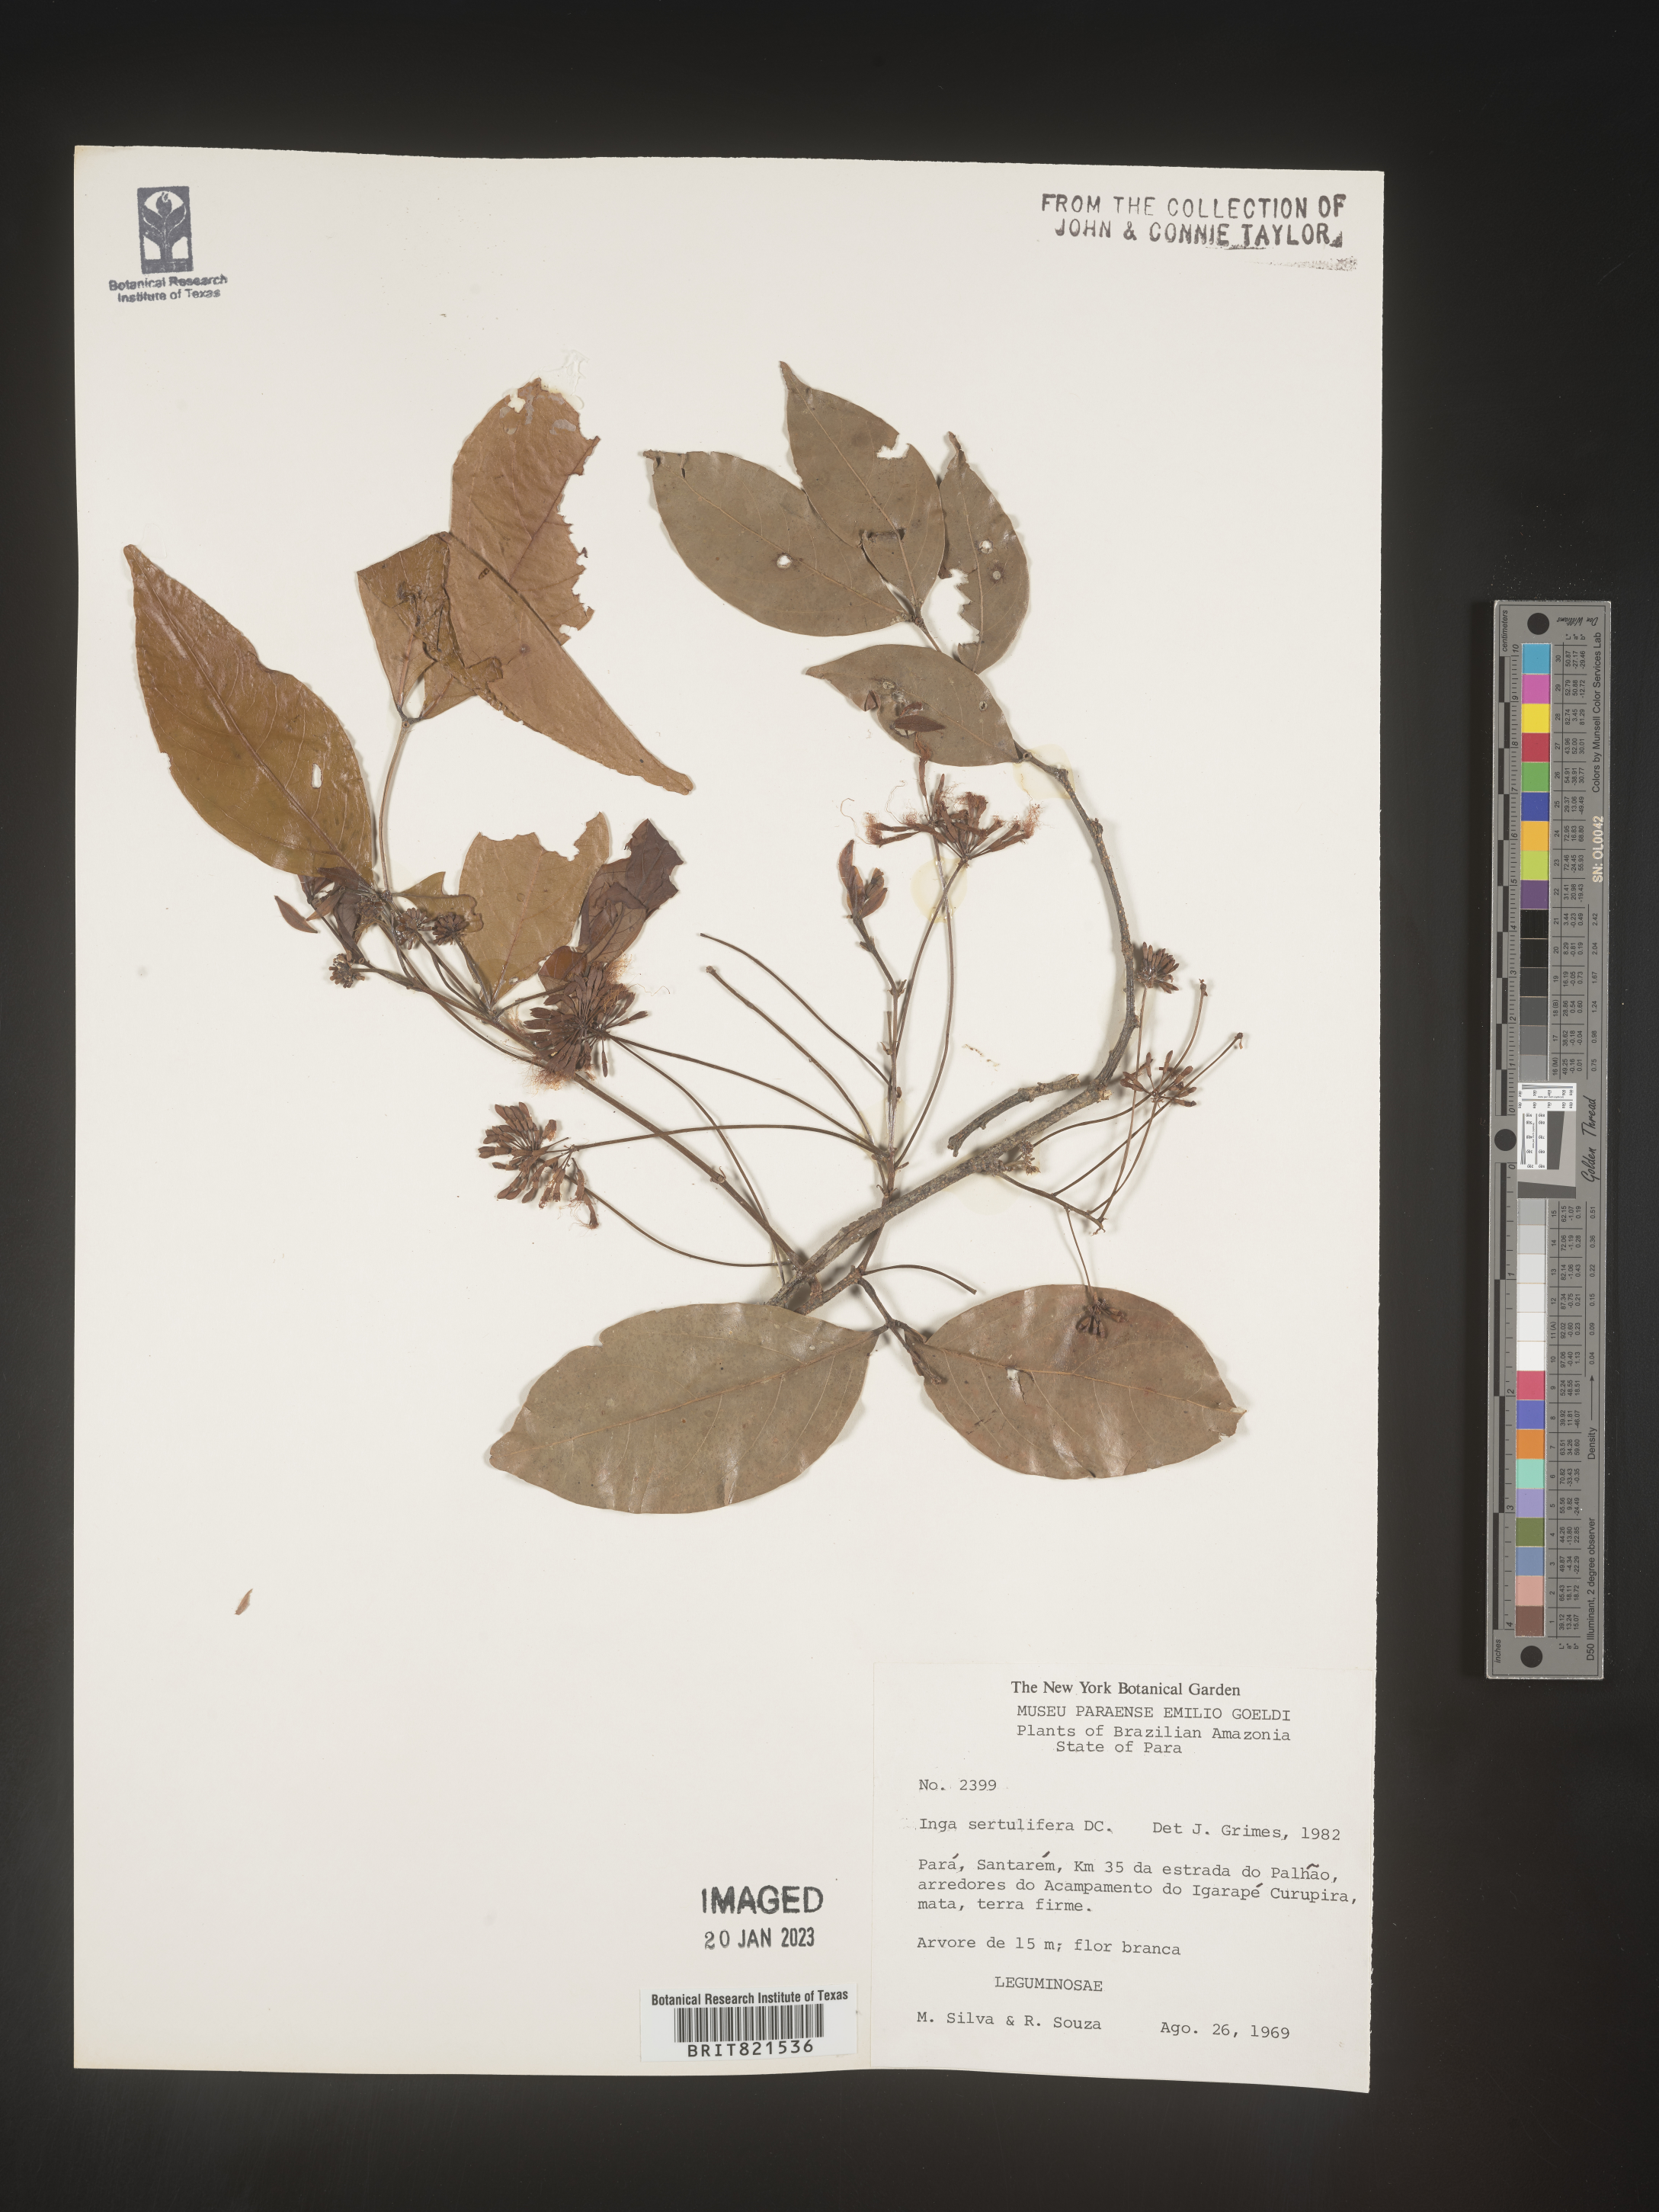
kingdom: Plantae
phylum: Tracheophyta
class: Magnoliopsida
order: Fabales
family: Fabaceae
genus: Inga
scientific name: Inga
